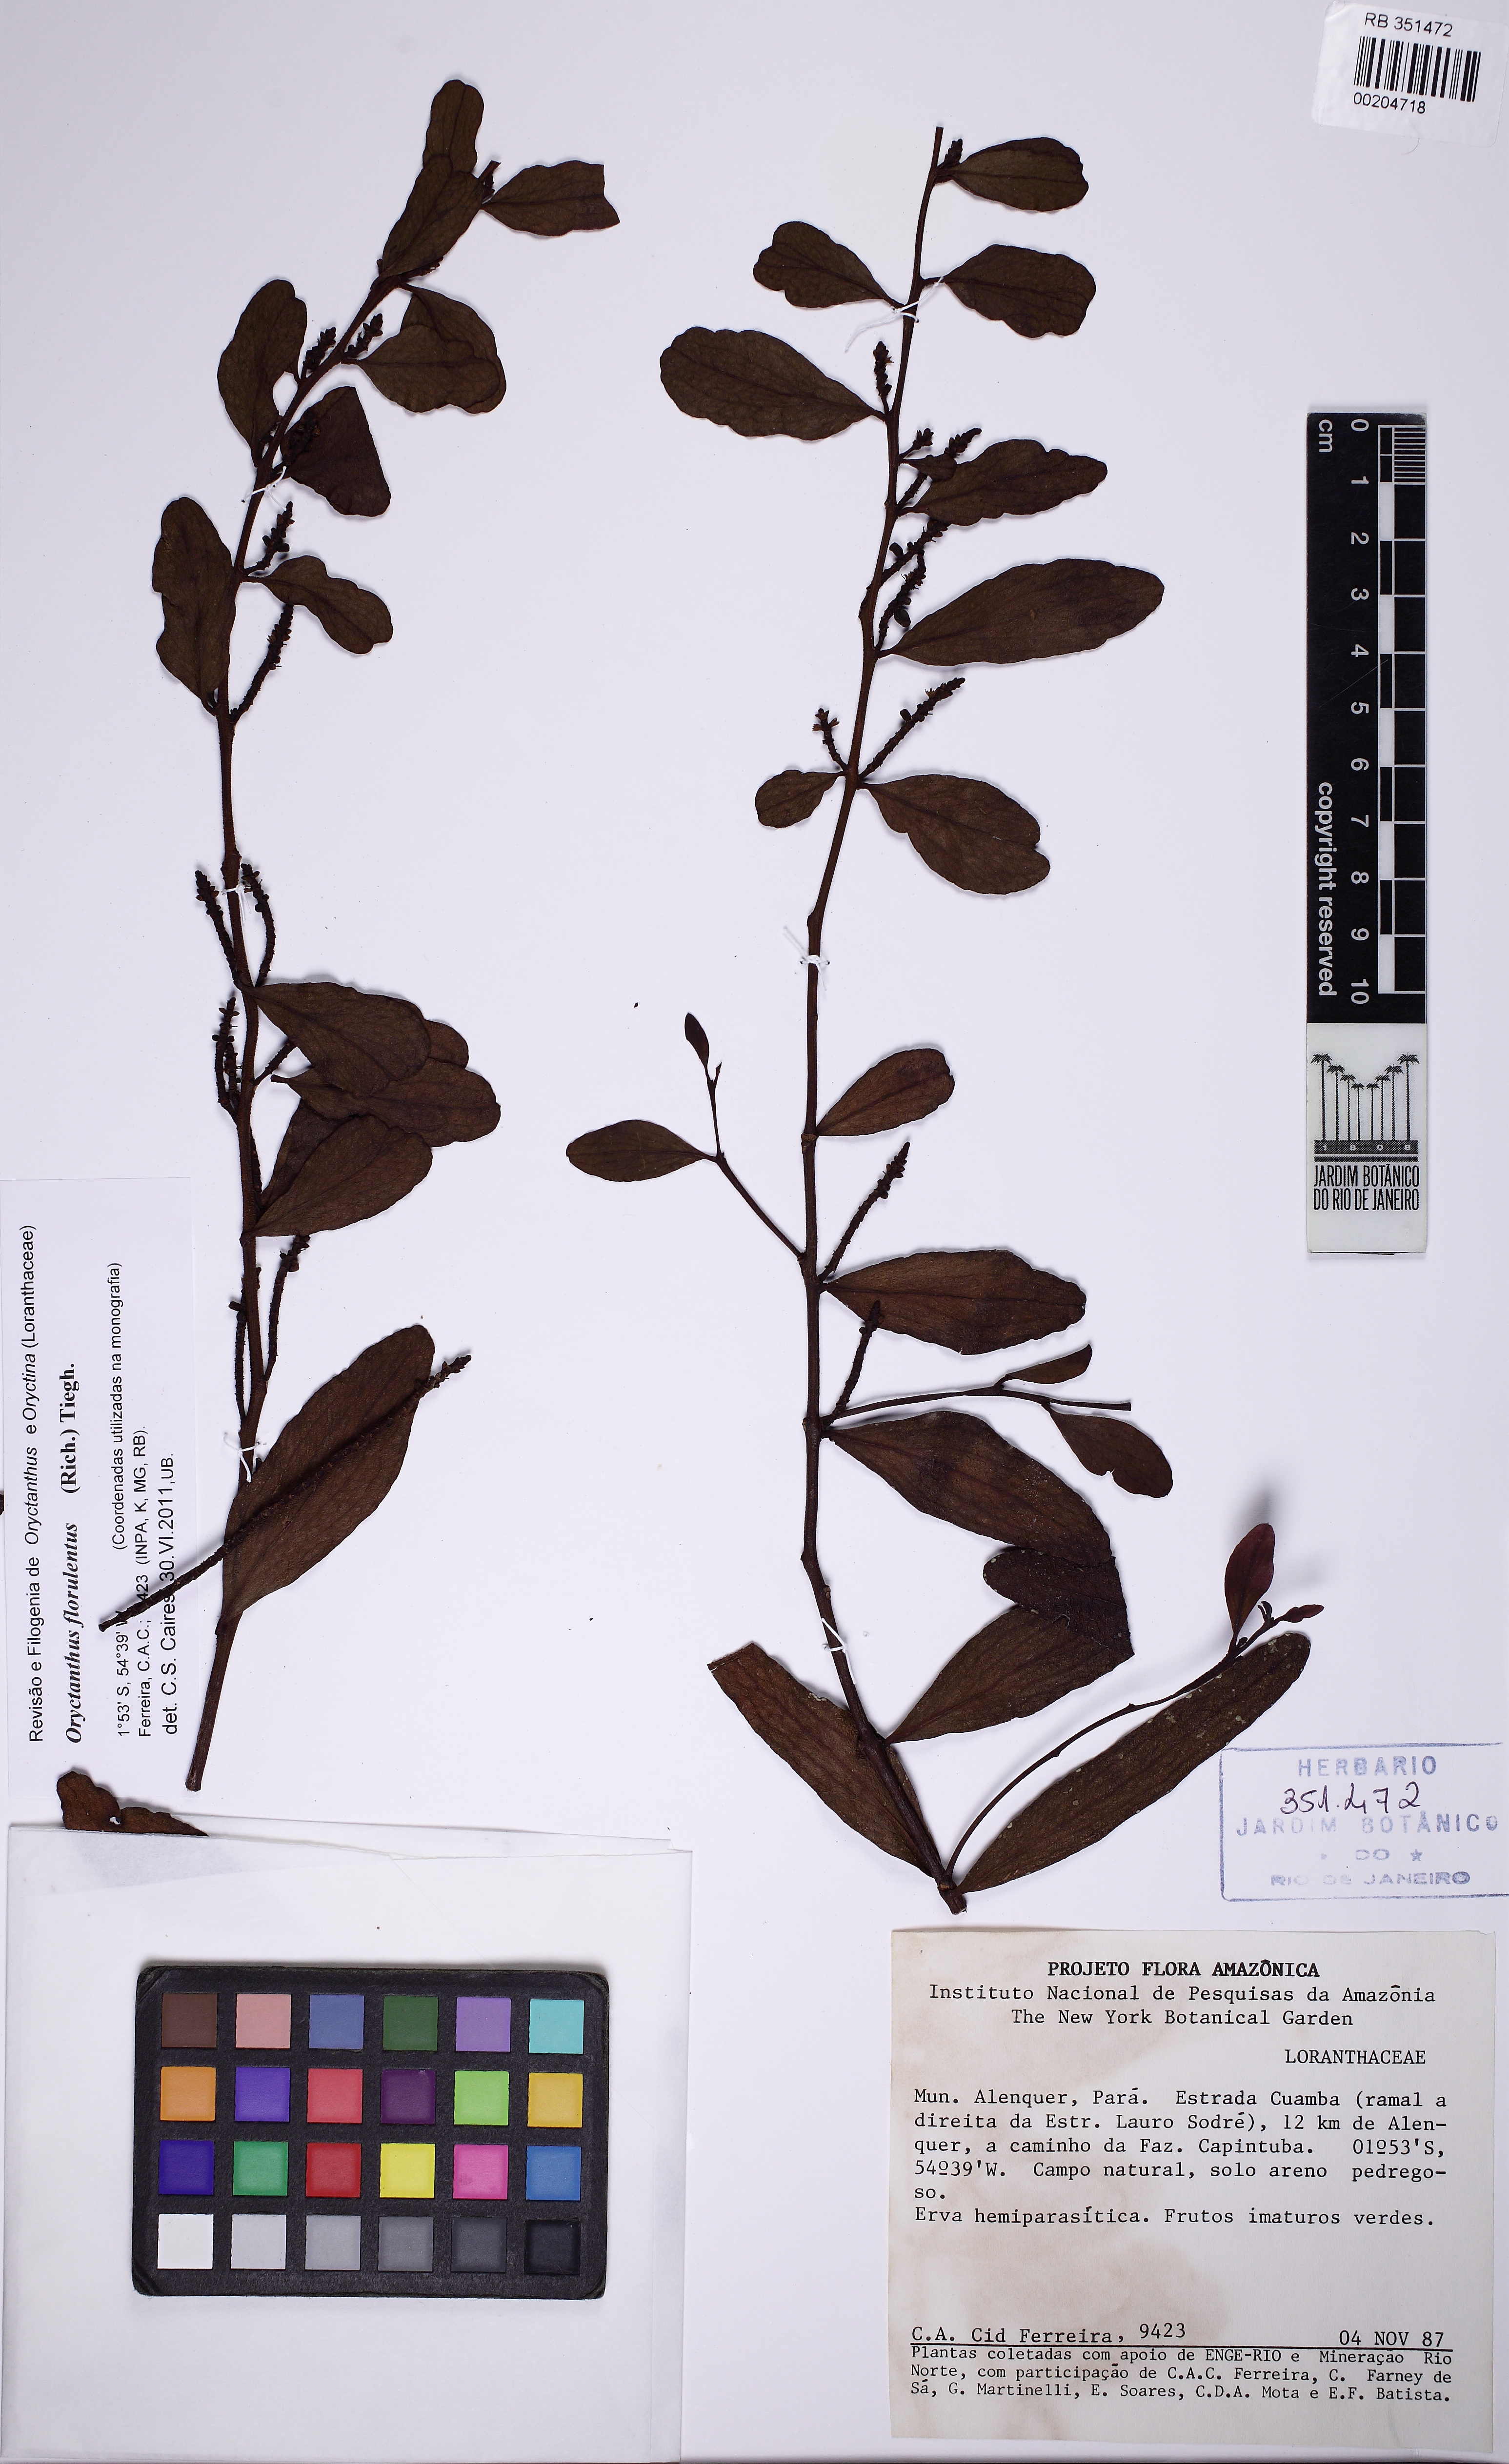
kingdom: Plantae
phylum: Tracheophyta
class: Magnoliopsida
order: Santalales
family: Loranthaceae
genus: Oryctanthus
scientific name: Oryctanthus florulentus
